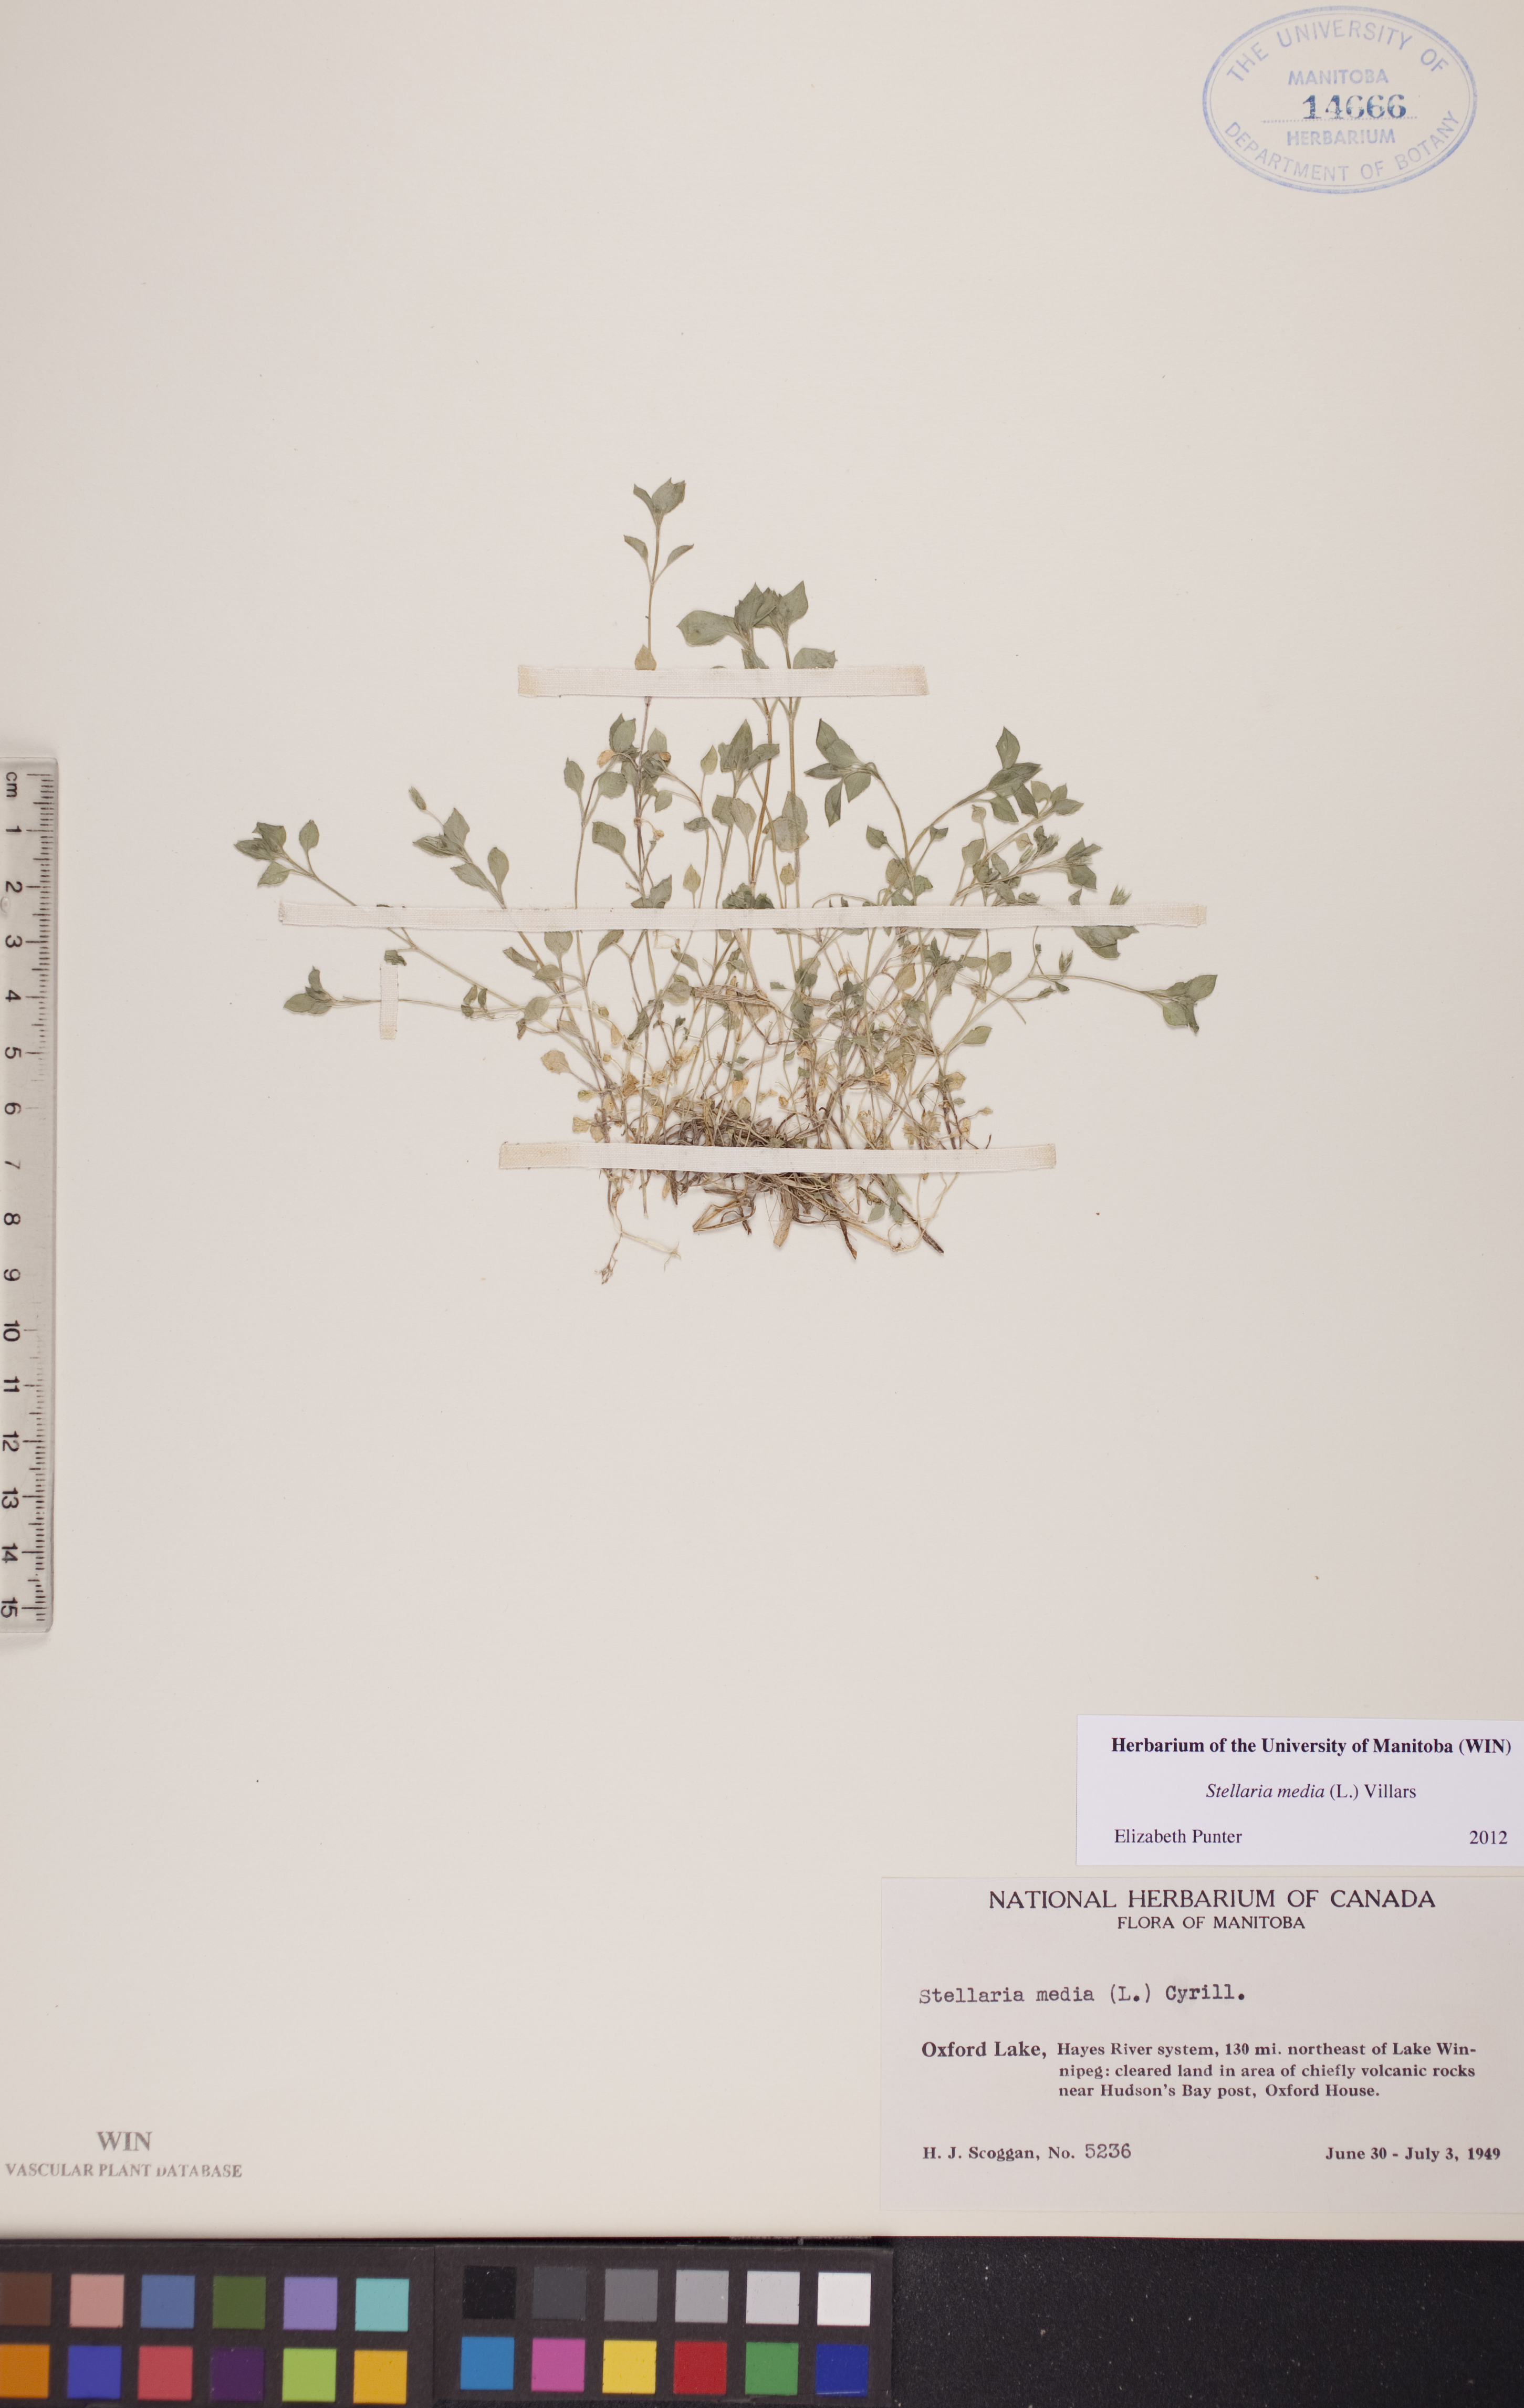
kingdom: Plantae
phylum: Tracheophyta
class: Magnoliopsida
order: Caryophyllales
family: Caryophyllaceae
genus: Stellaria
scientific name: Stellaria media
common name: Common chickweed
